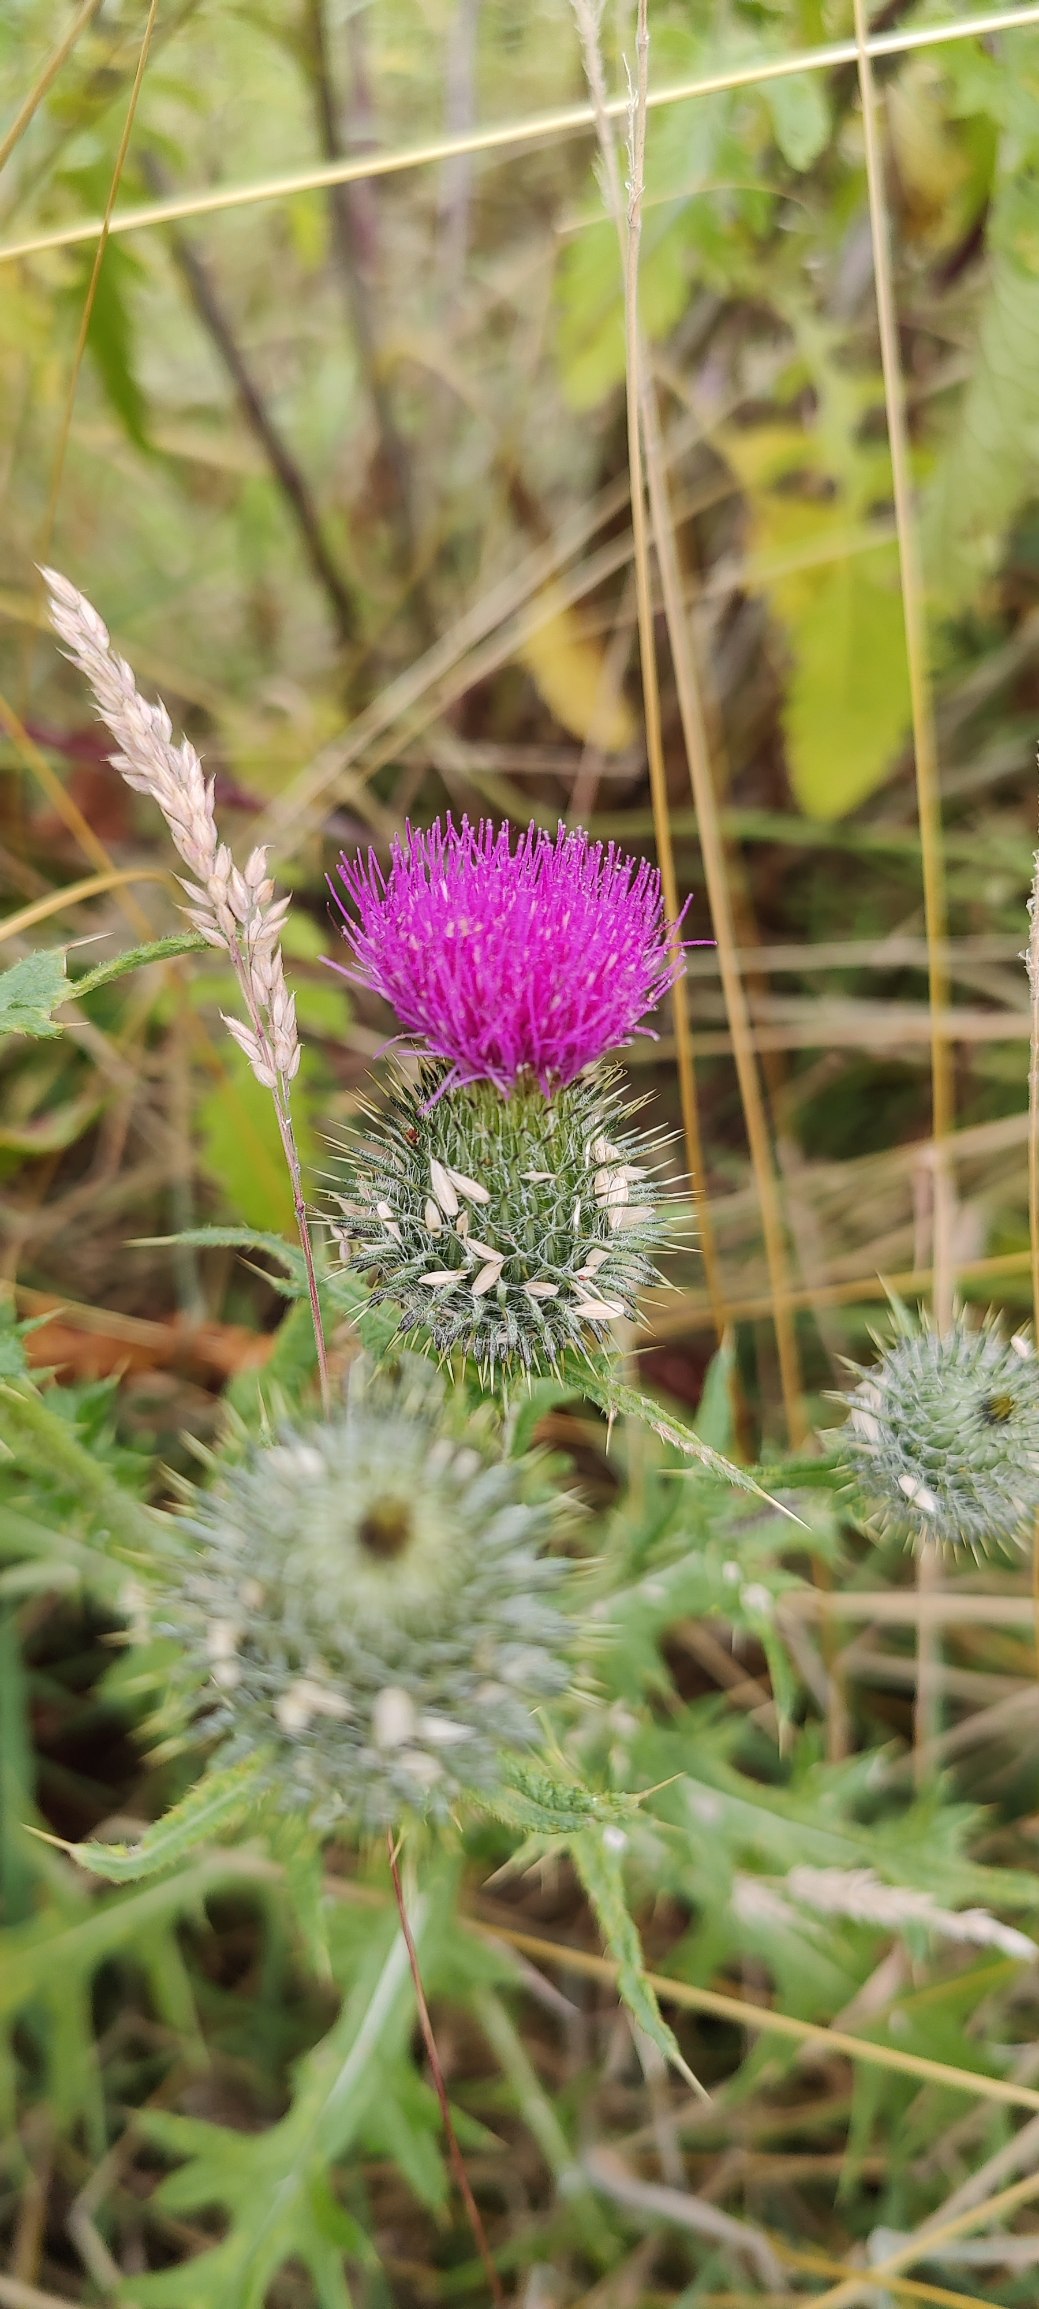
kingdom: Plantae
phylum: Tracheophyta
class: Magnoliopsida
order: Asterales
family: Asteraceae
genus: Cirsium
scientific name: Cirsium vulgare
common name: Horse-tidsel
